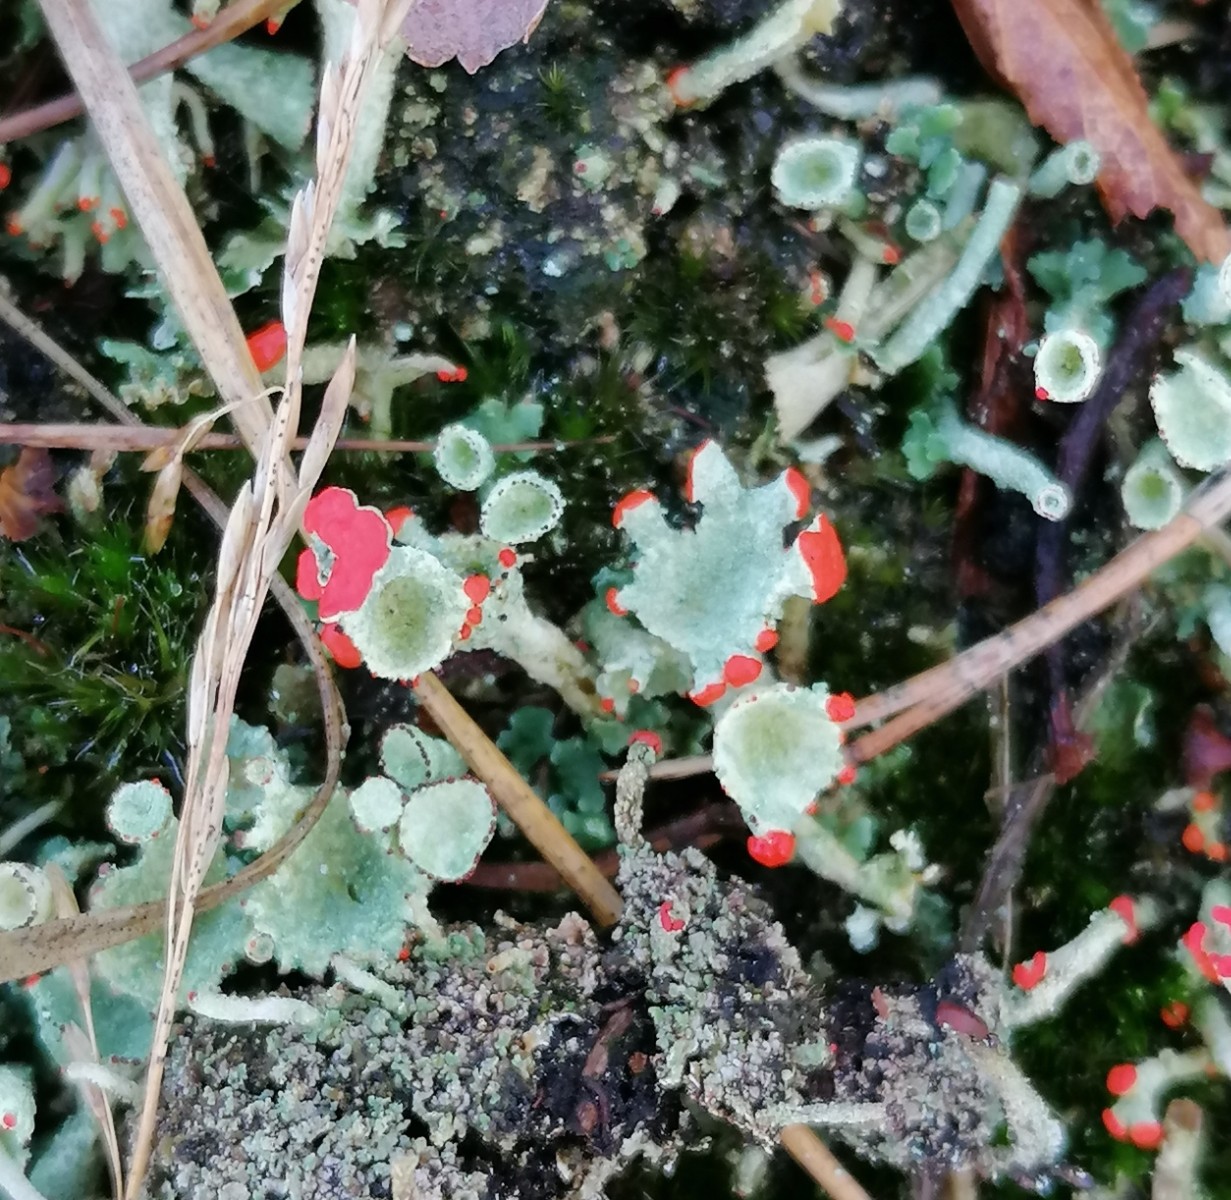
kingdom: Fungi
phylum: Ascomycota
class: Lecanoromycetes
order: Lecanorales
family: Cladoniaceae
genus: Cladonia
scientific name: Cladonia diversa
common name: rød bægerlav
